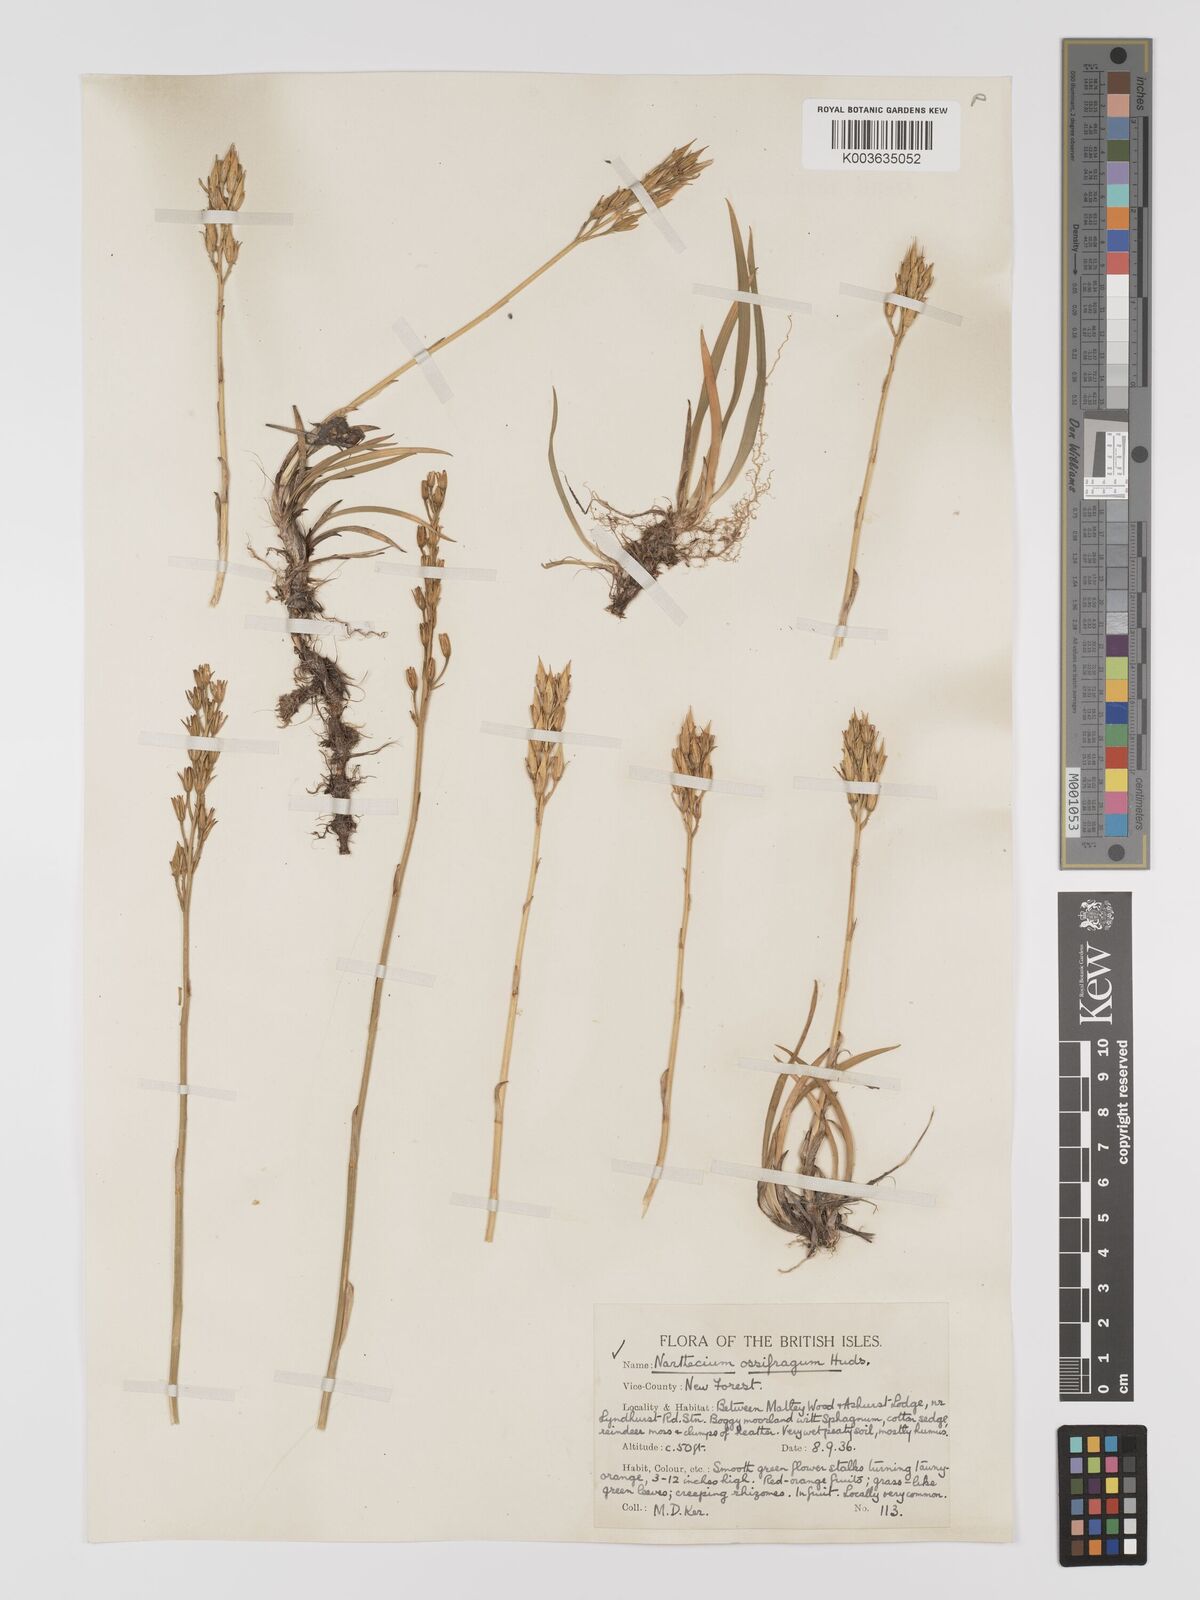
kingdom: Plantae
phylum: Tracheophyta
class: Liliopsida
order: Dioscoreales
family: Nartheciaceae
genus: Narthecium
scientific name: Narthecium
